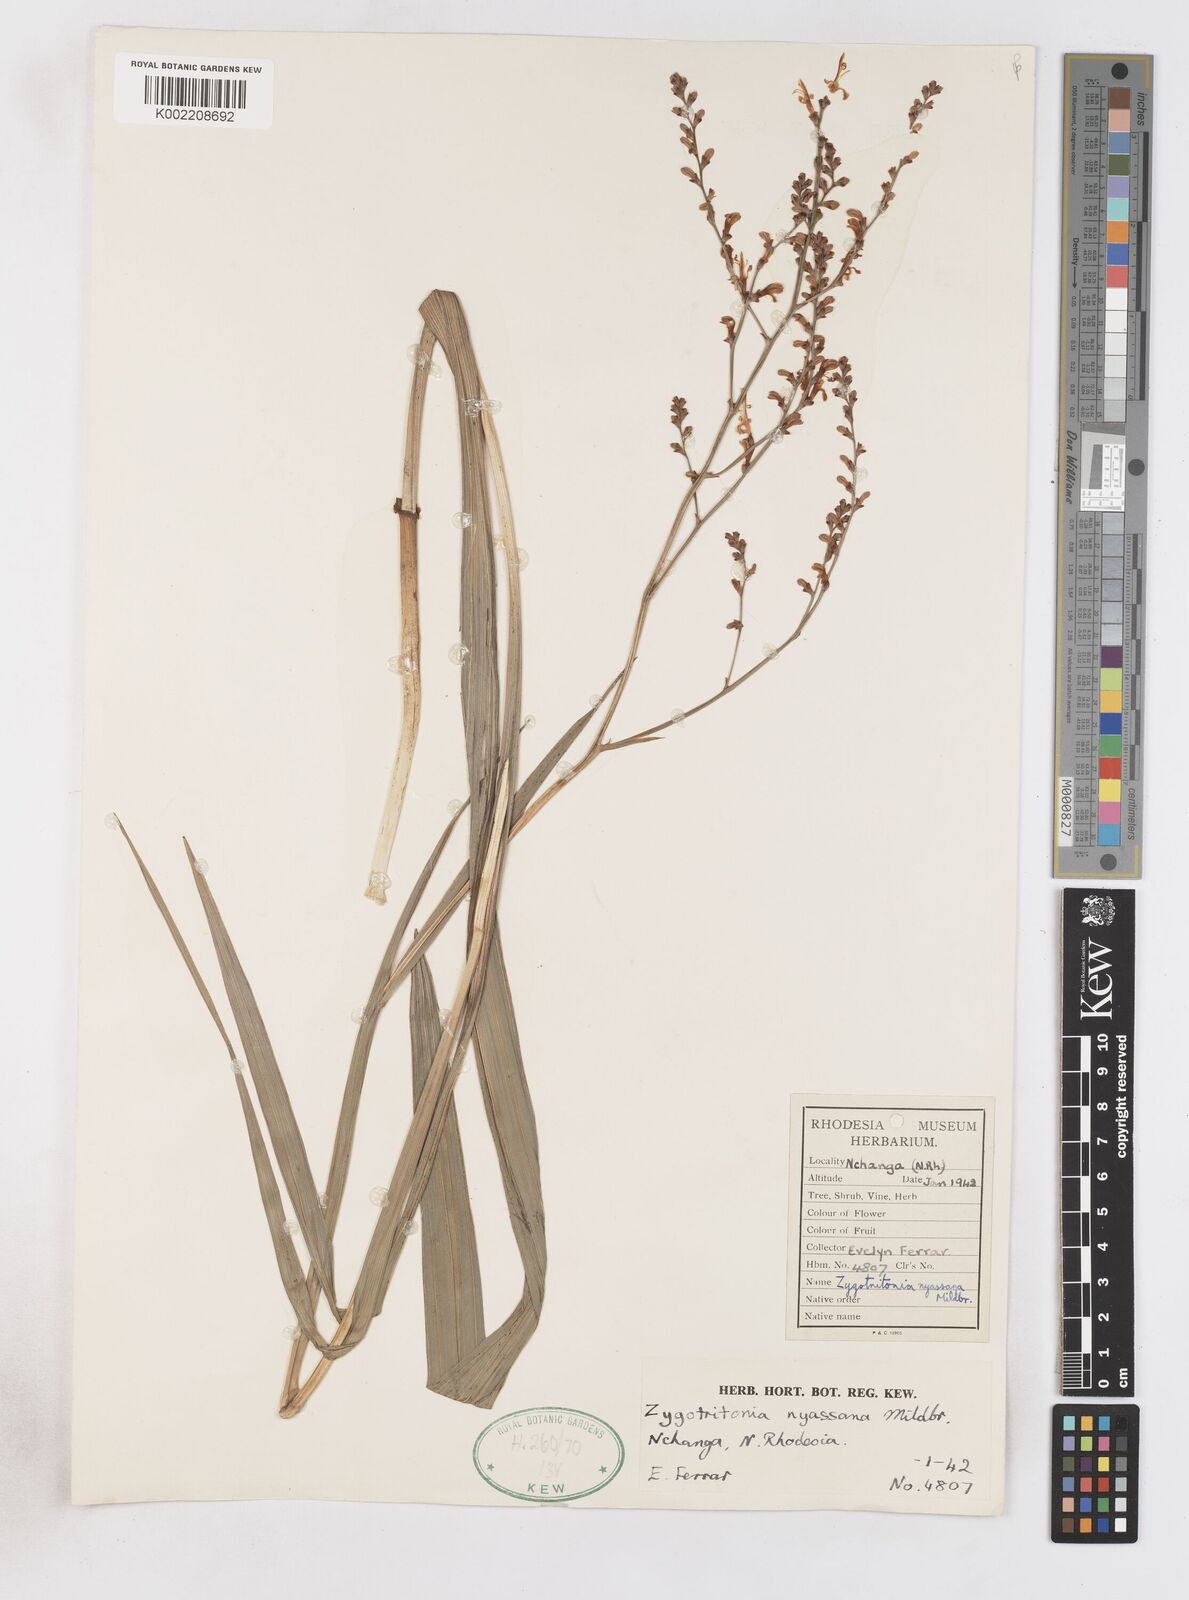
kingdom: Plantae
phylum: Tracheophyta
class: Liliopsida
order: Asparagales
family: Iridaceae
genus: Zygotritonia
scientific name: Zygotritonia nyassana
